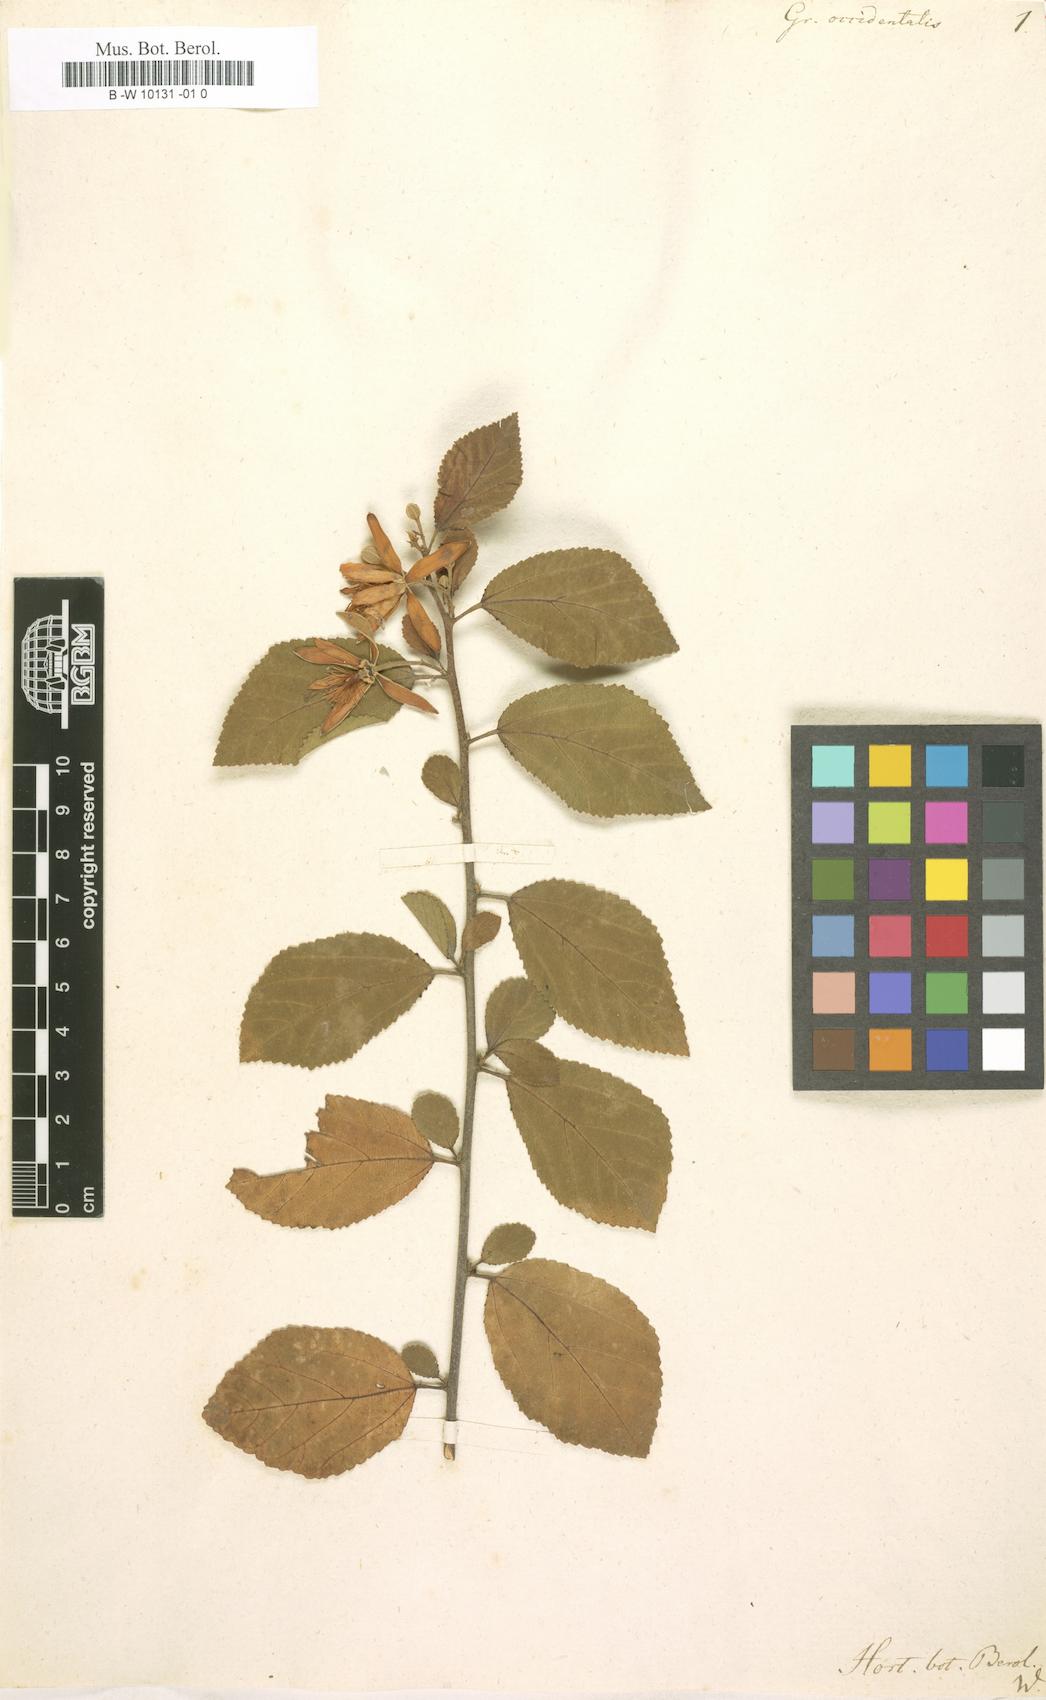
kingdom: Plantae
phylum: Tracheophyta
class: Magnoliopsida
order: Malvales
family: Malvaceae
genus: Grewia
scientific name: Grewia occidentalis
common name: Crossberry
